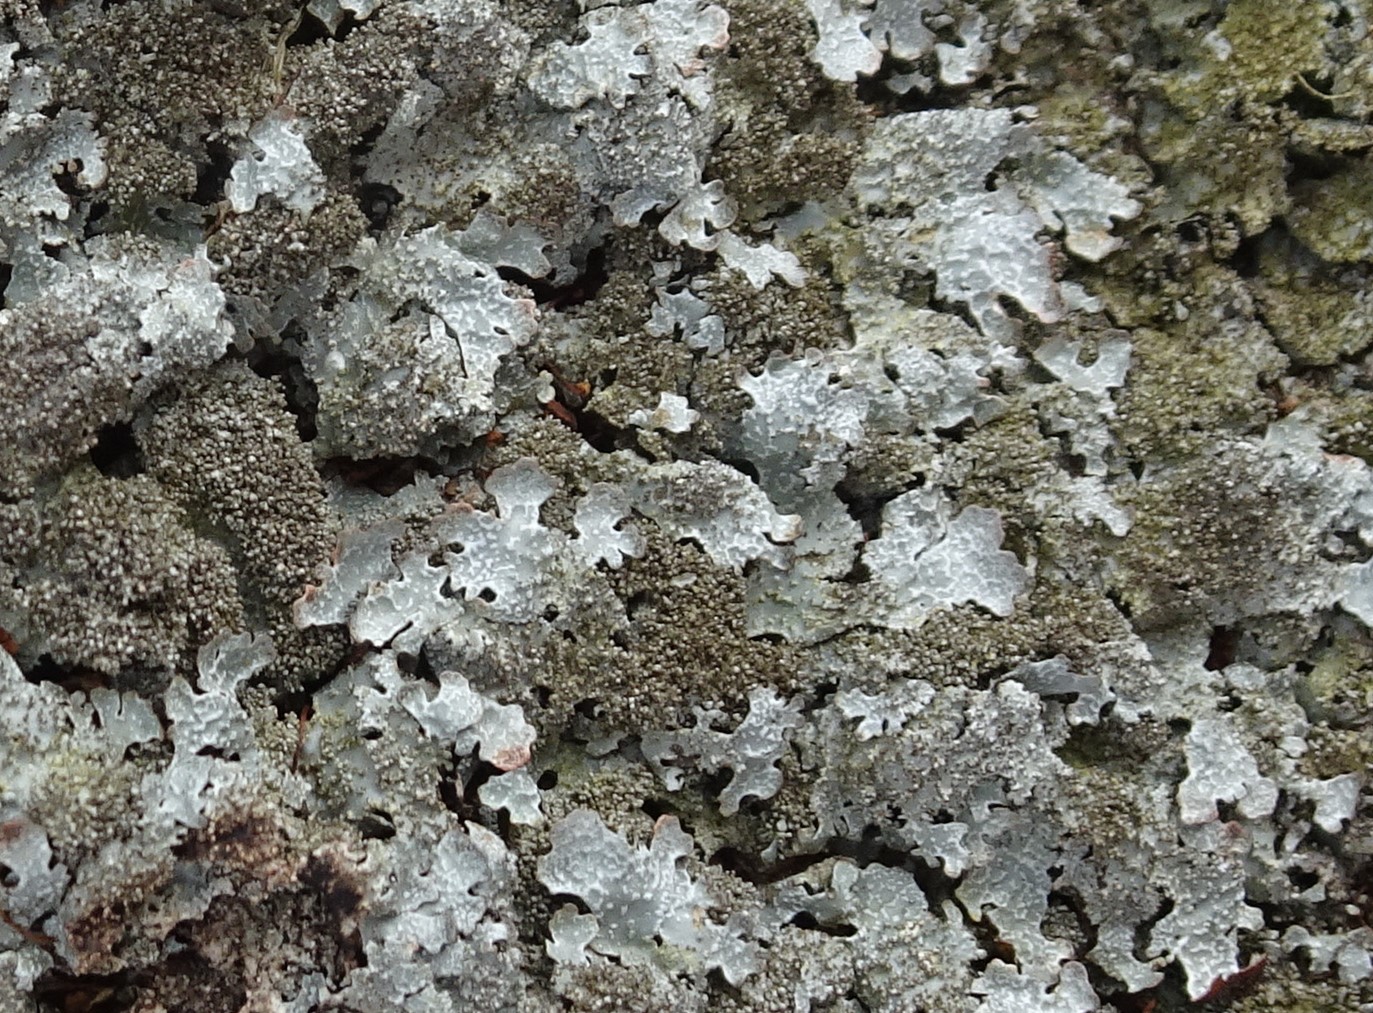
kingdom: Fungi
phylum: Ascomycota
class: Lecanoromycetes
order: Lecanorales
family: Parmeliaceae
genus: Parmelia
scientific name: Parmelia
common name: farve-skållav
